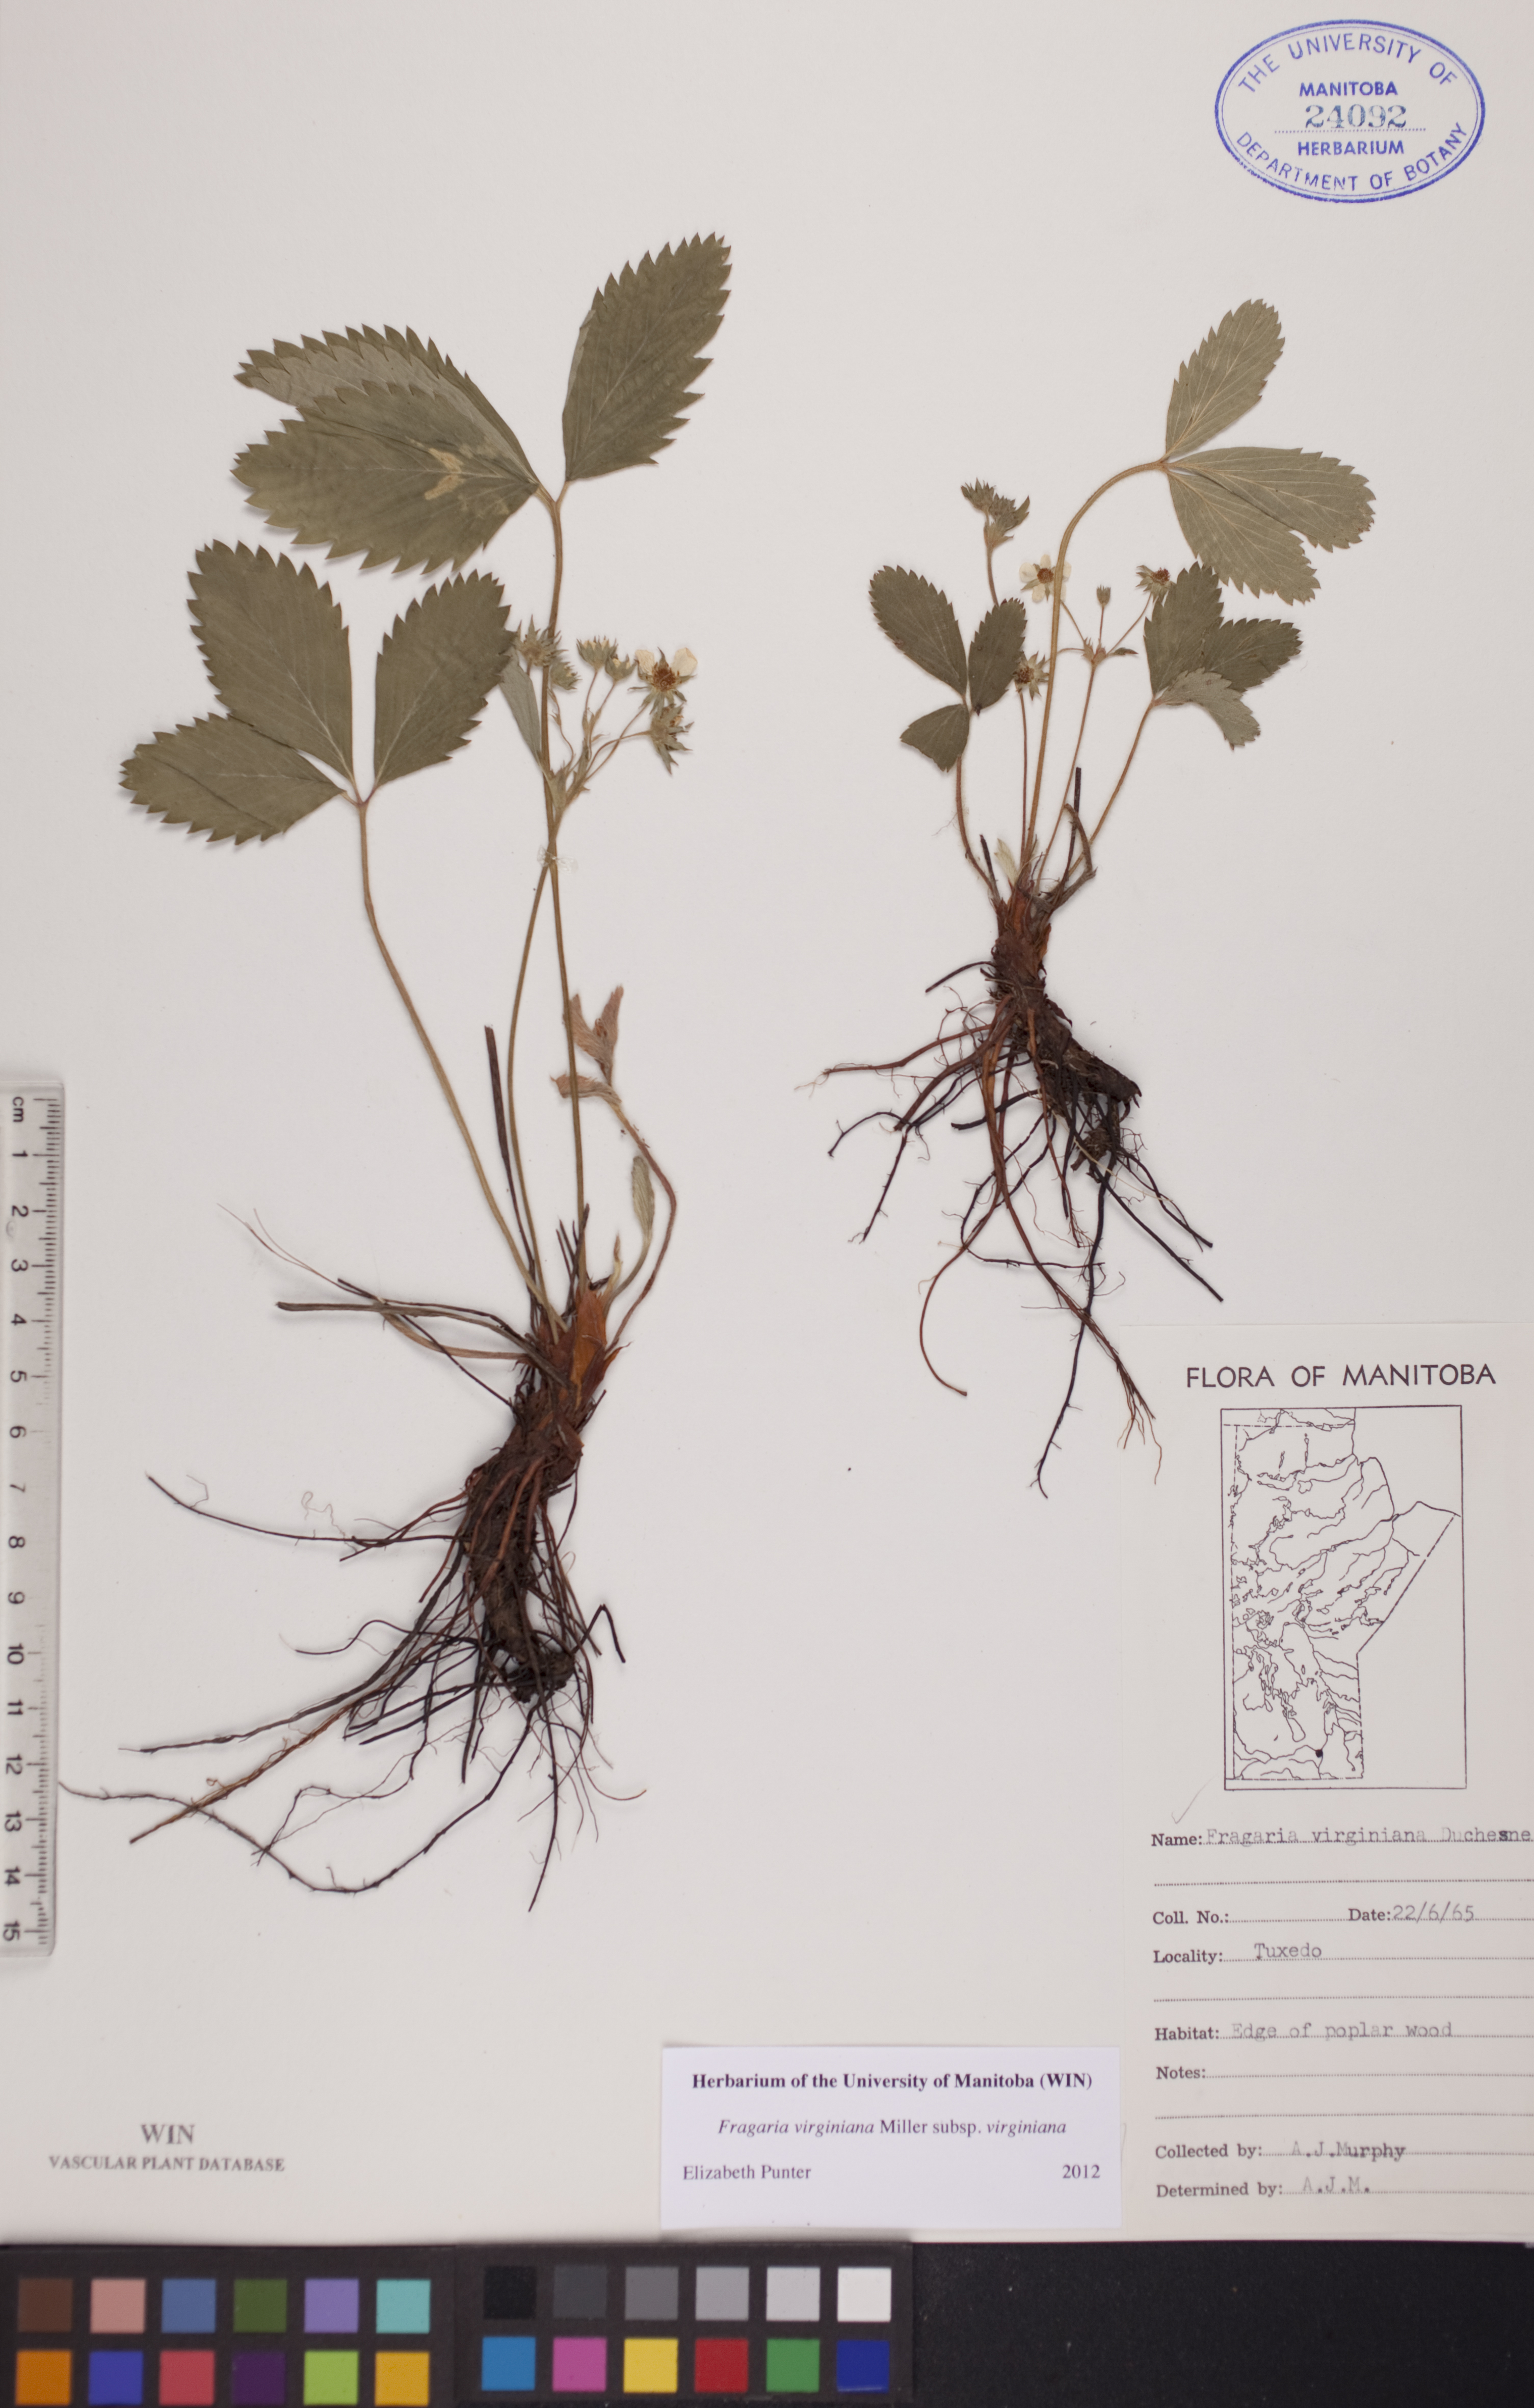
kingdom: Plantae
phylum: Tracheophyta
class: Magnoliopsida
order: Rosales
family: Rosaceae
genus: Fragaria
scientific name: Fragaria virginiana
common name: Thickleaved wild strawberry
